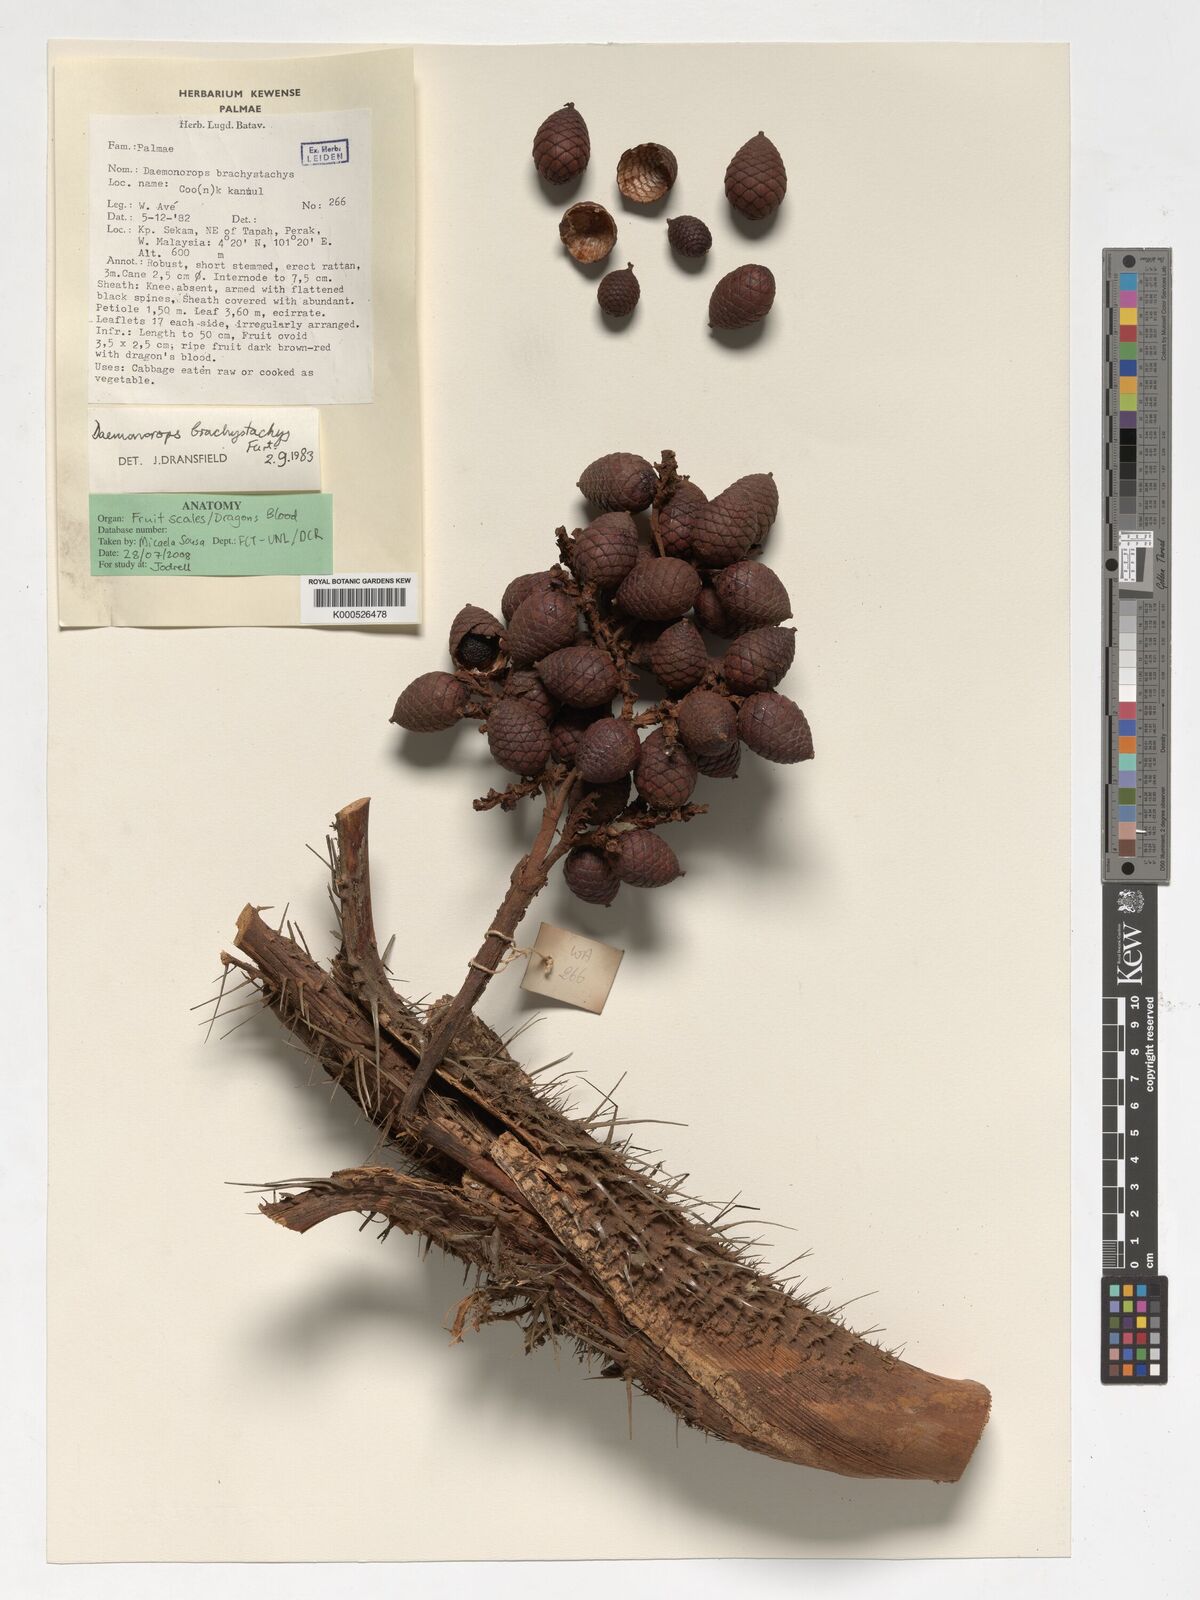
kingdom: Plantae
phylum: Tracheophyta
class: Liliopsida
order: Arecales
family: Arecaceae
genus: Calamus
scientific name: Calamus propinquus
